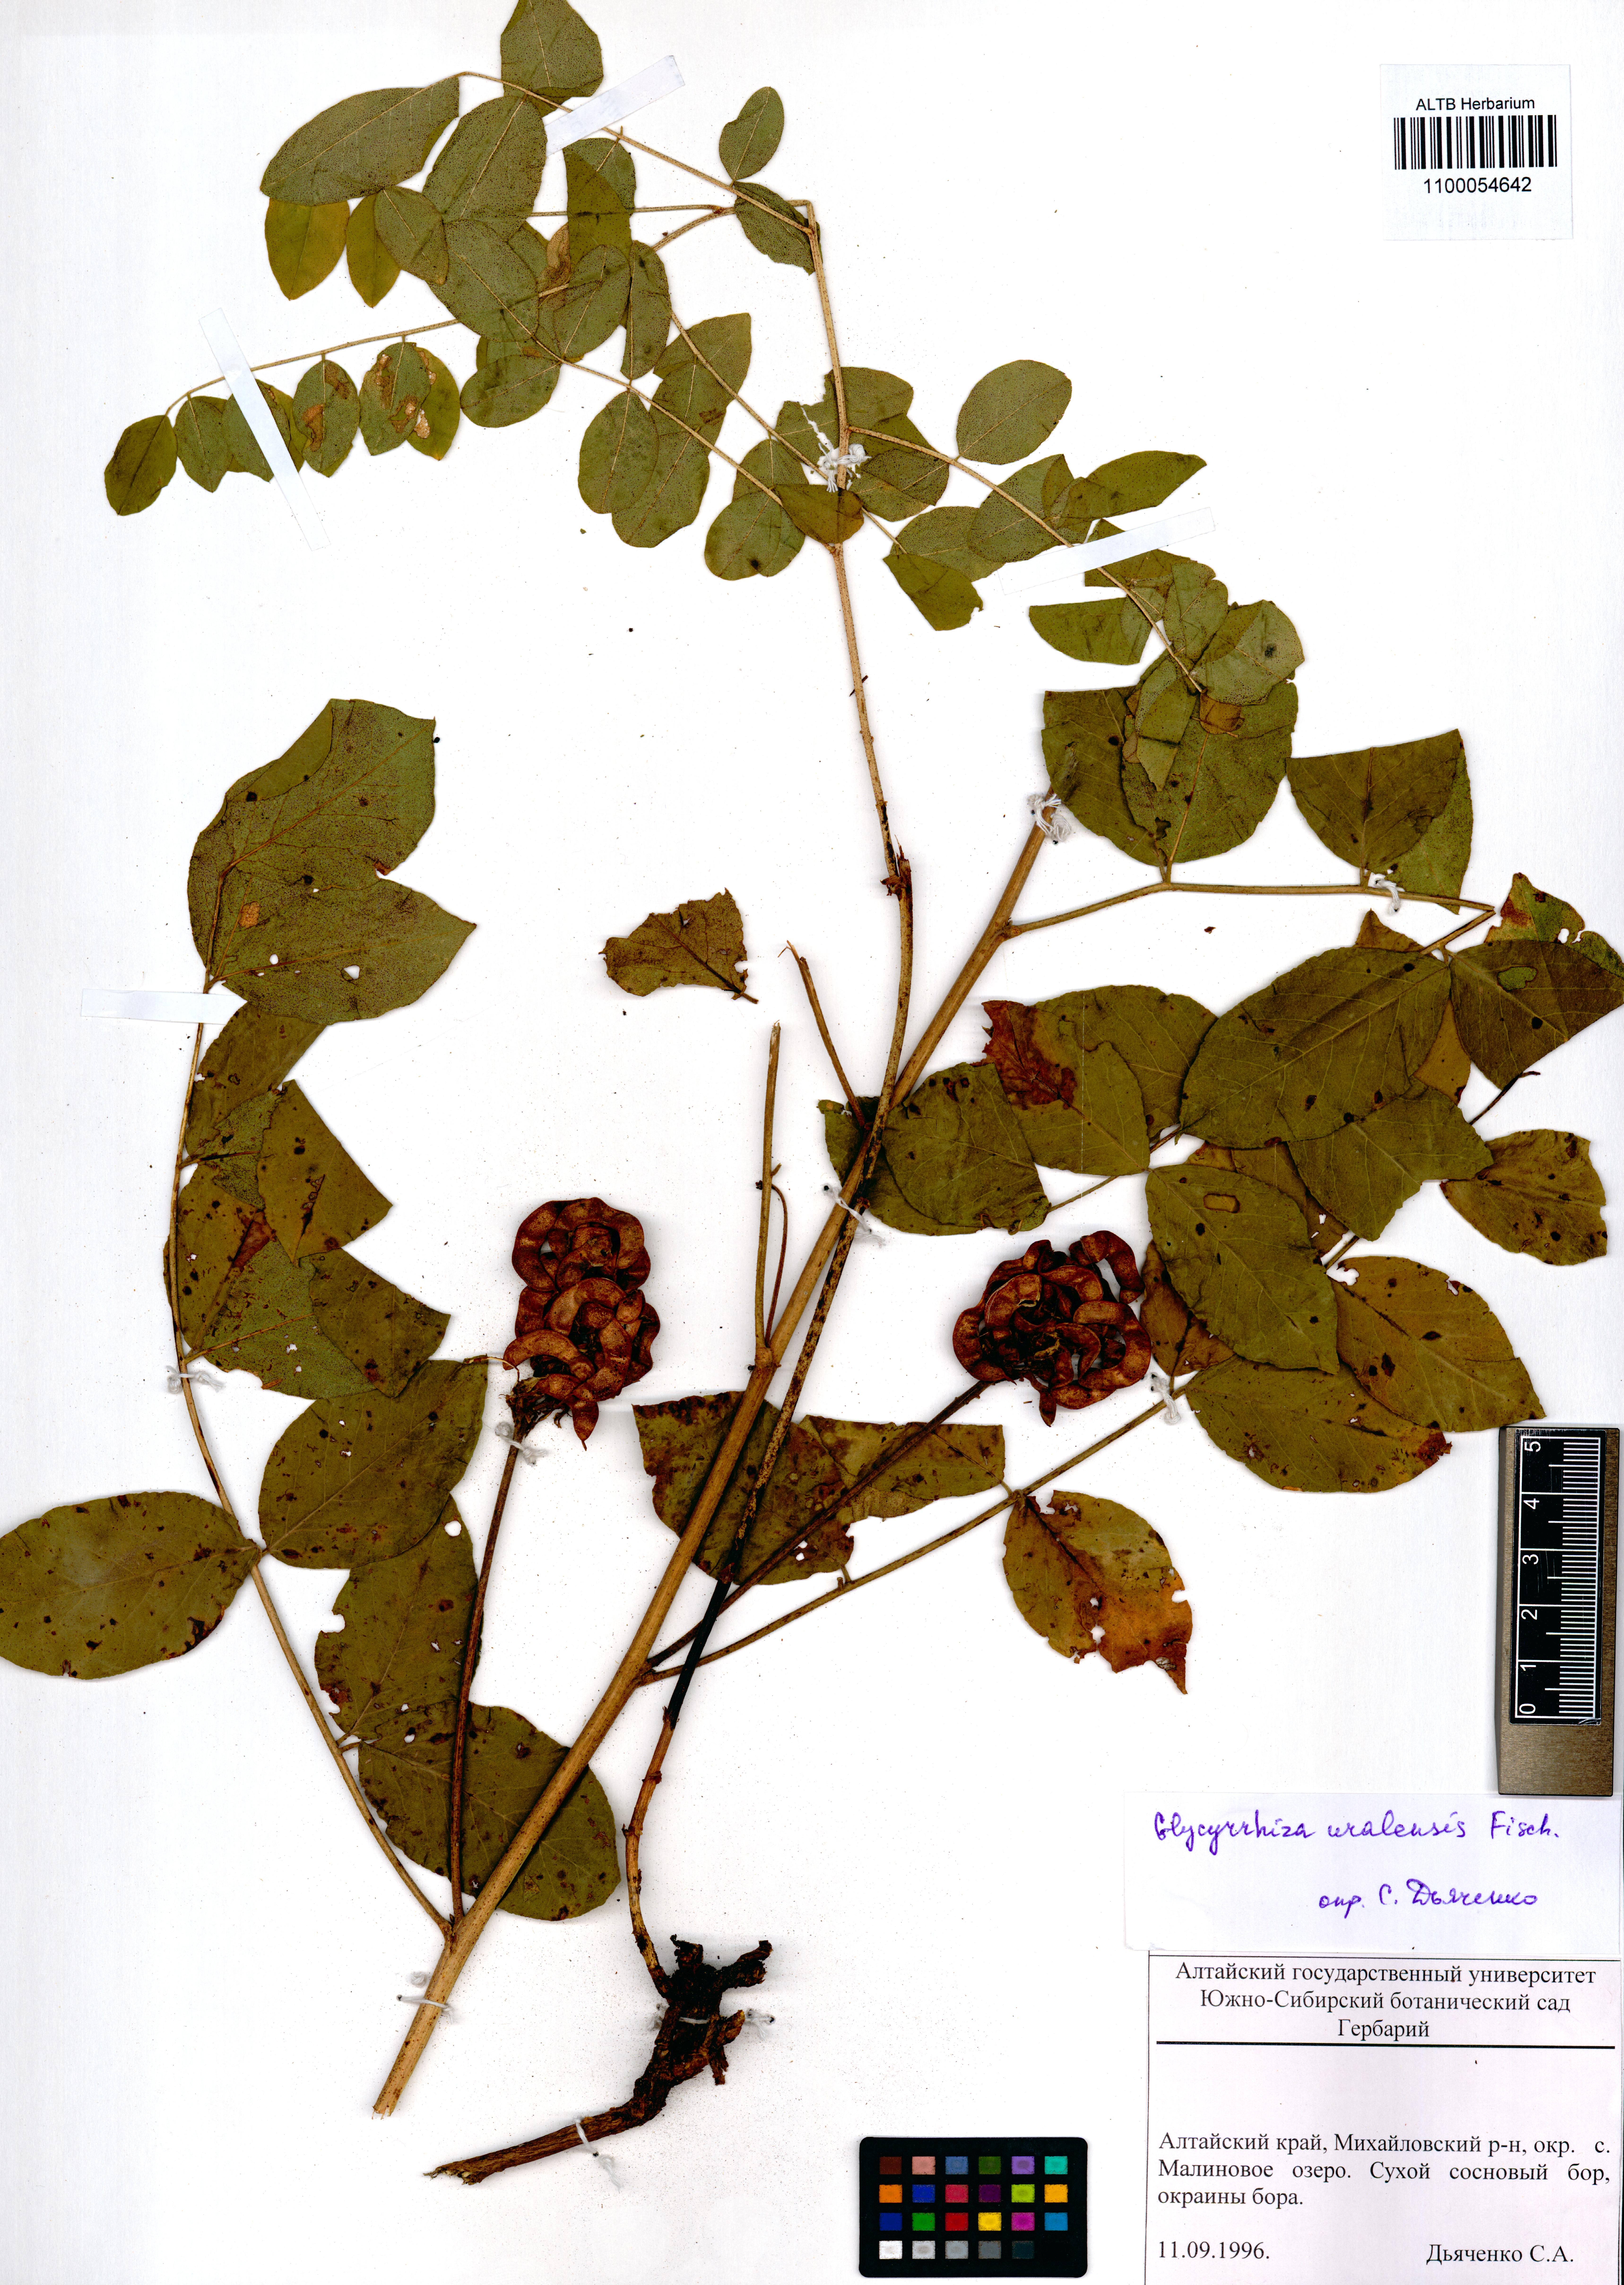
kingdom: Plantae
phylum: Tracheophyta
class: Magnoliopsida
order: Fabales
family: Fabaceae
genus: Glycyrrhiza
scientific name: Glycyrrhiza uralensis
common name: Chinese licorice
